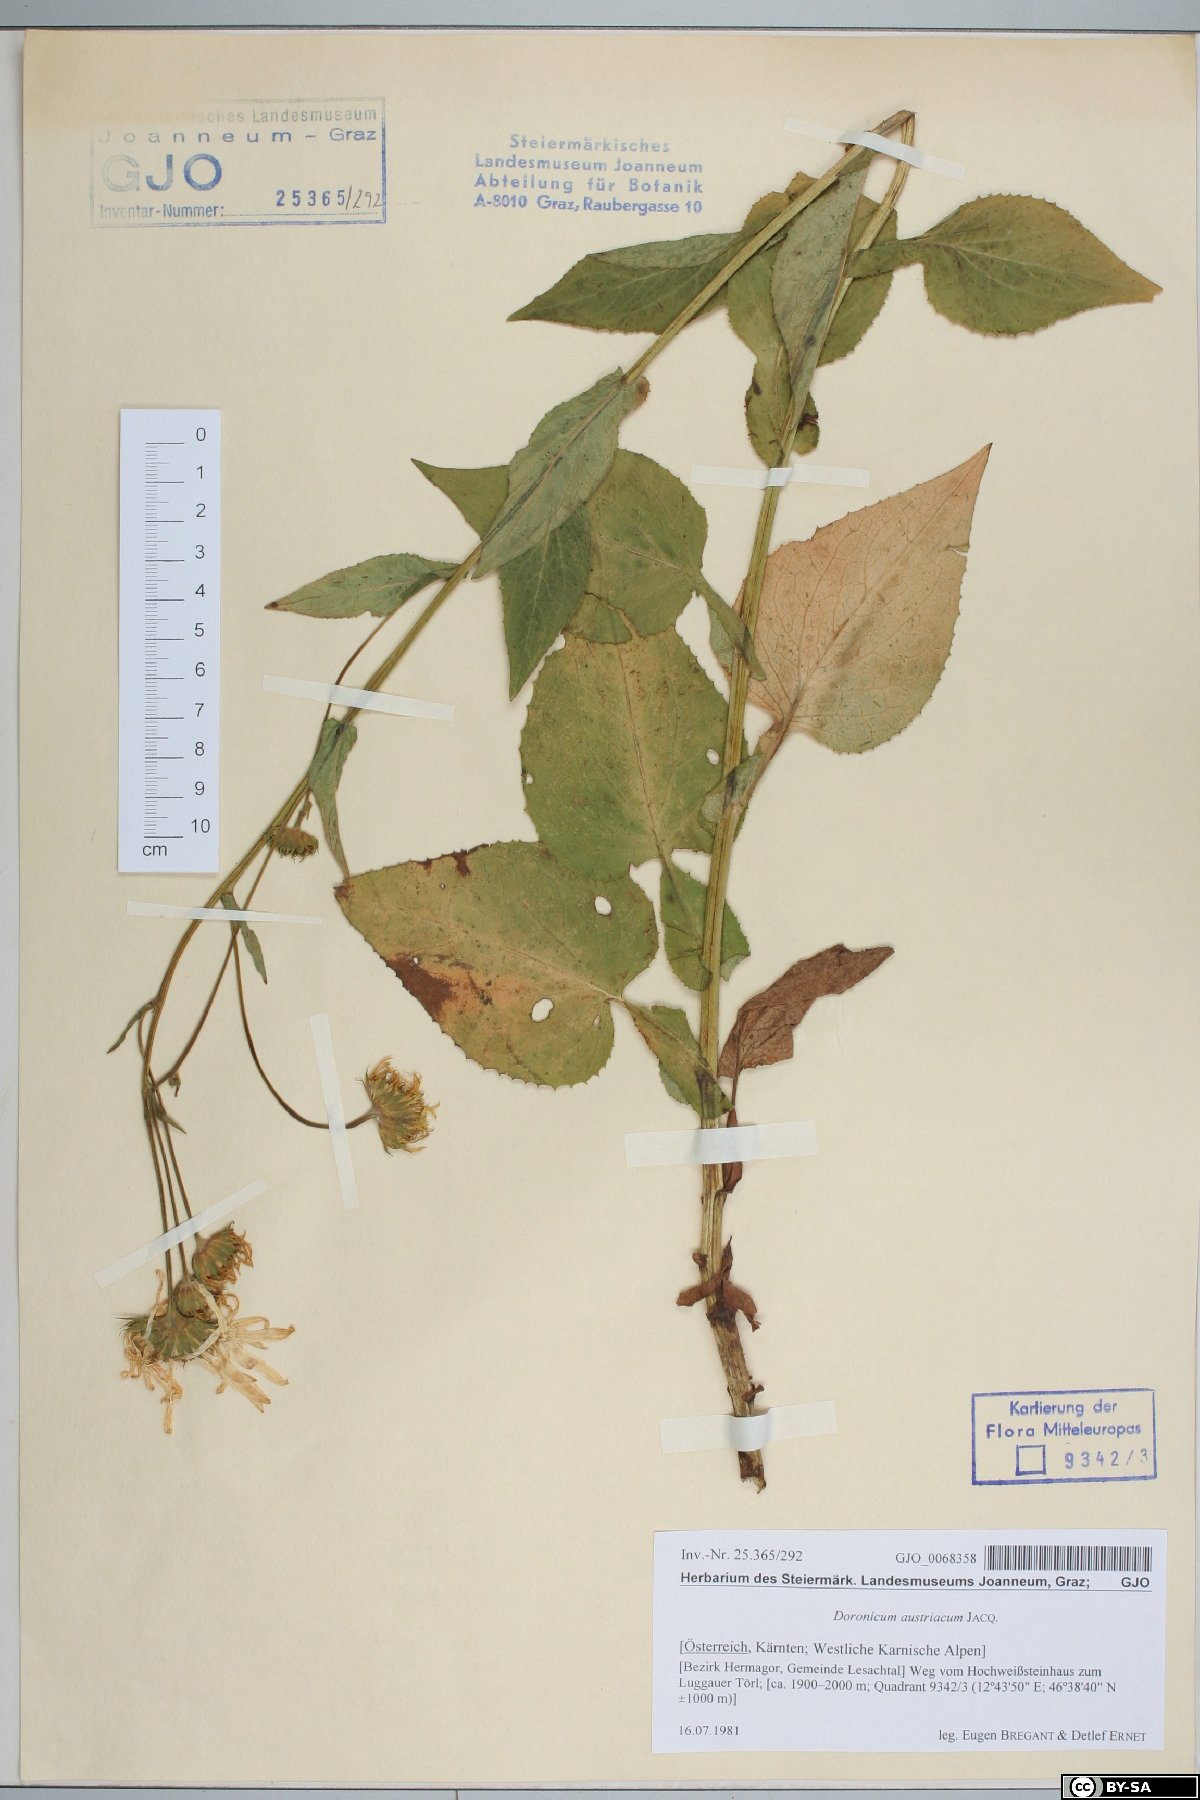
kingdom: Plantae
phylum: Tracheophyta
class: Magnoliopsida
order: Asterales
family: Asteraceae
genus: Doronicum
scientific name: Doronicum austriacum
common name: Austrian leopard's-bane
